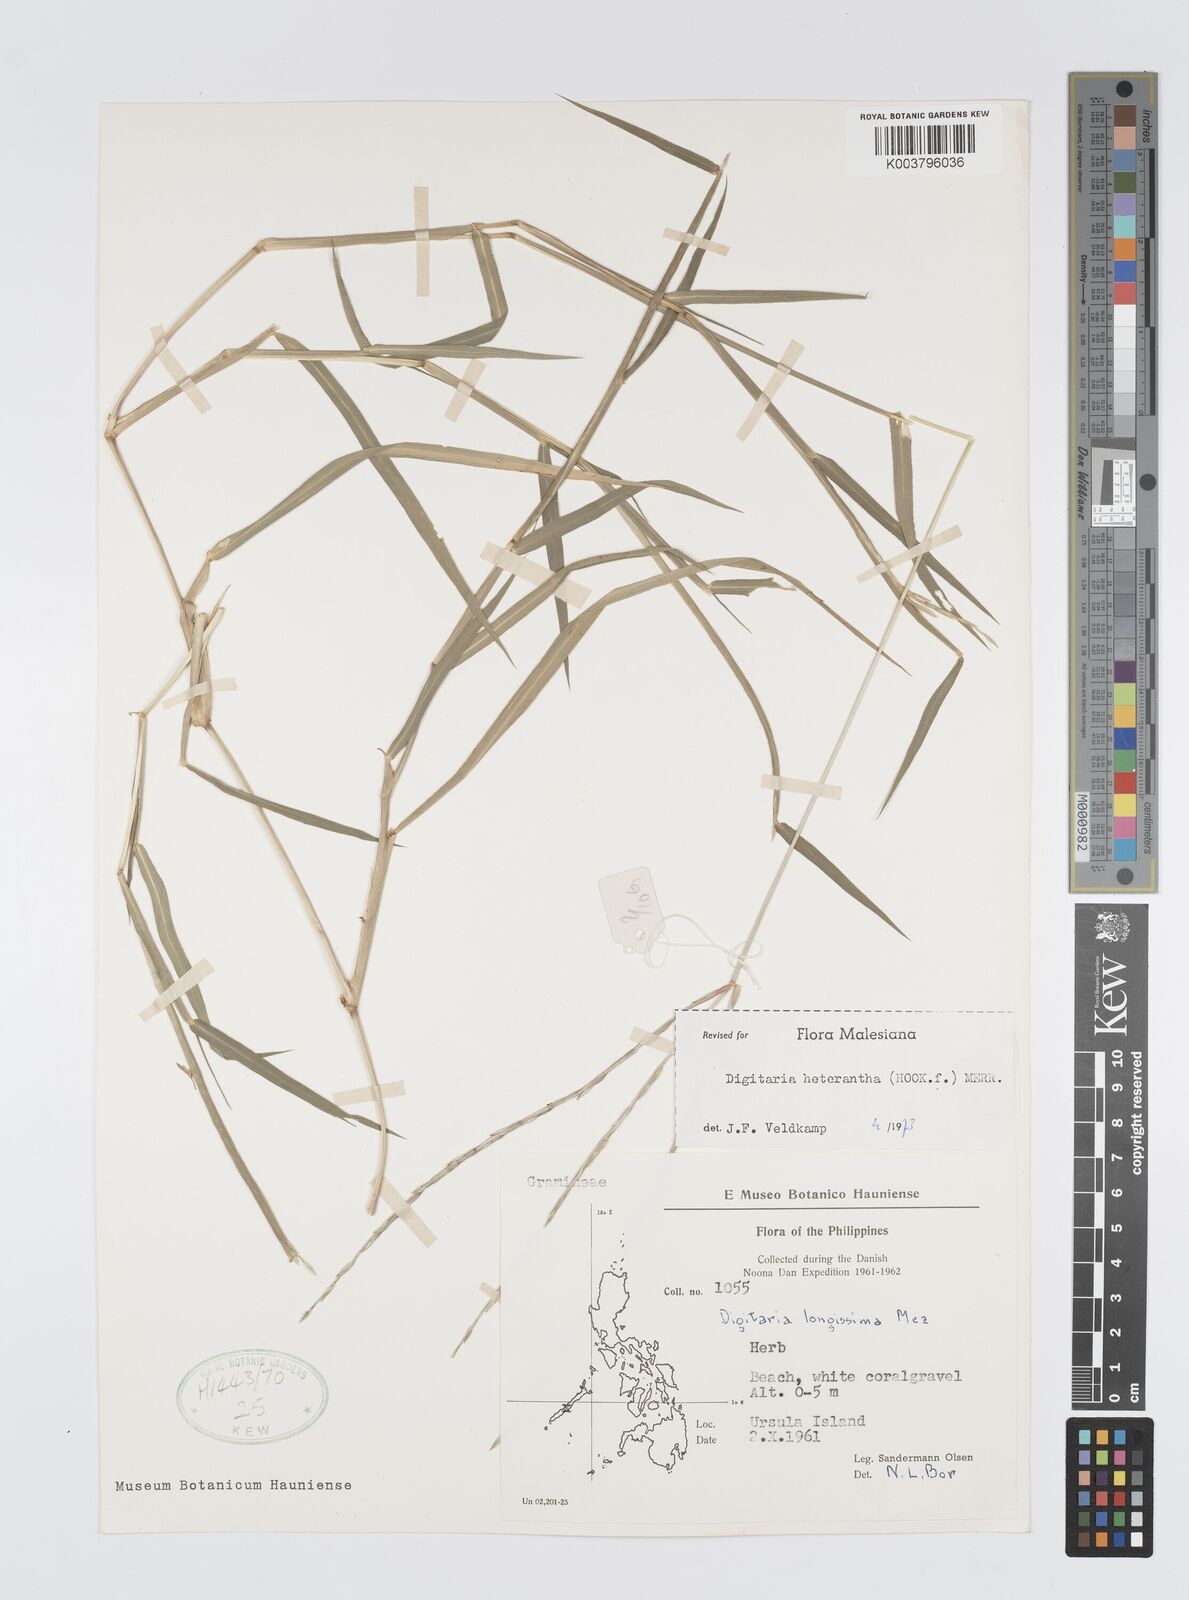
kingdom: Plantae
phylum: Tracheophyta
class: Liliopsida
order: Poales
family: Poaceae
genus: Digitaria
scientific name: Digitaria heterantha
